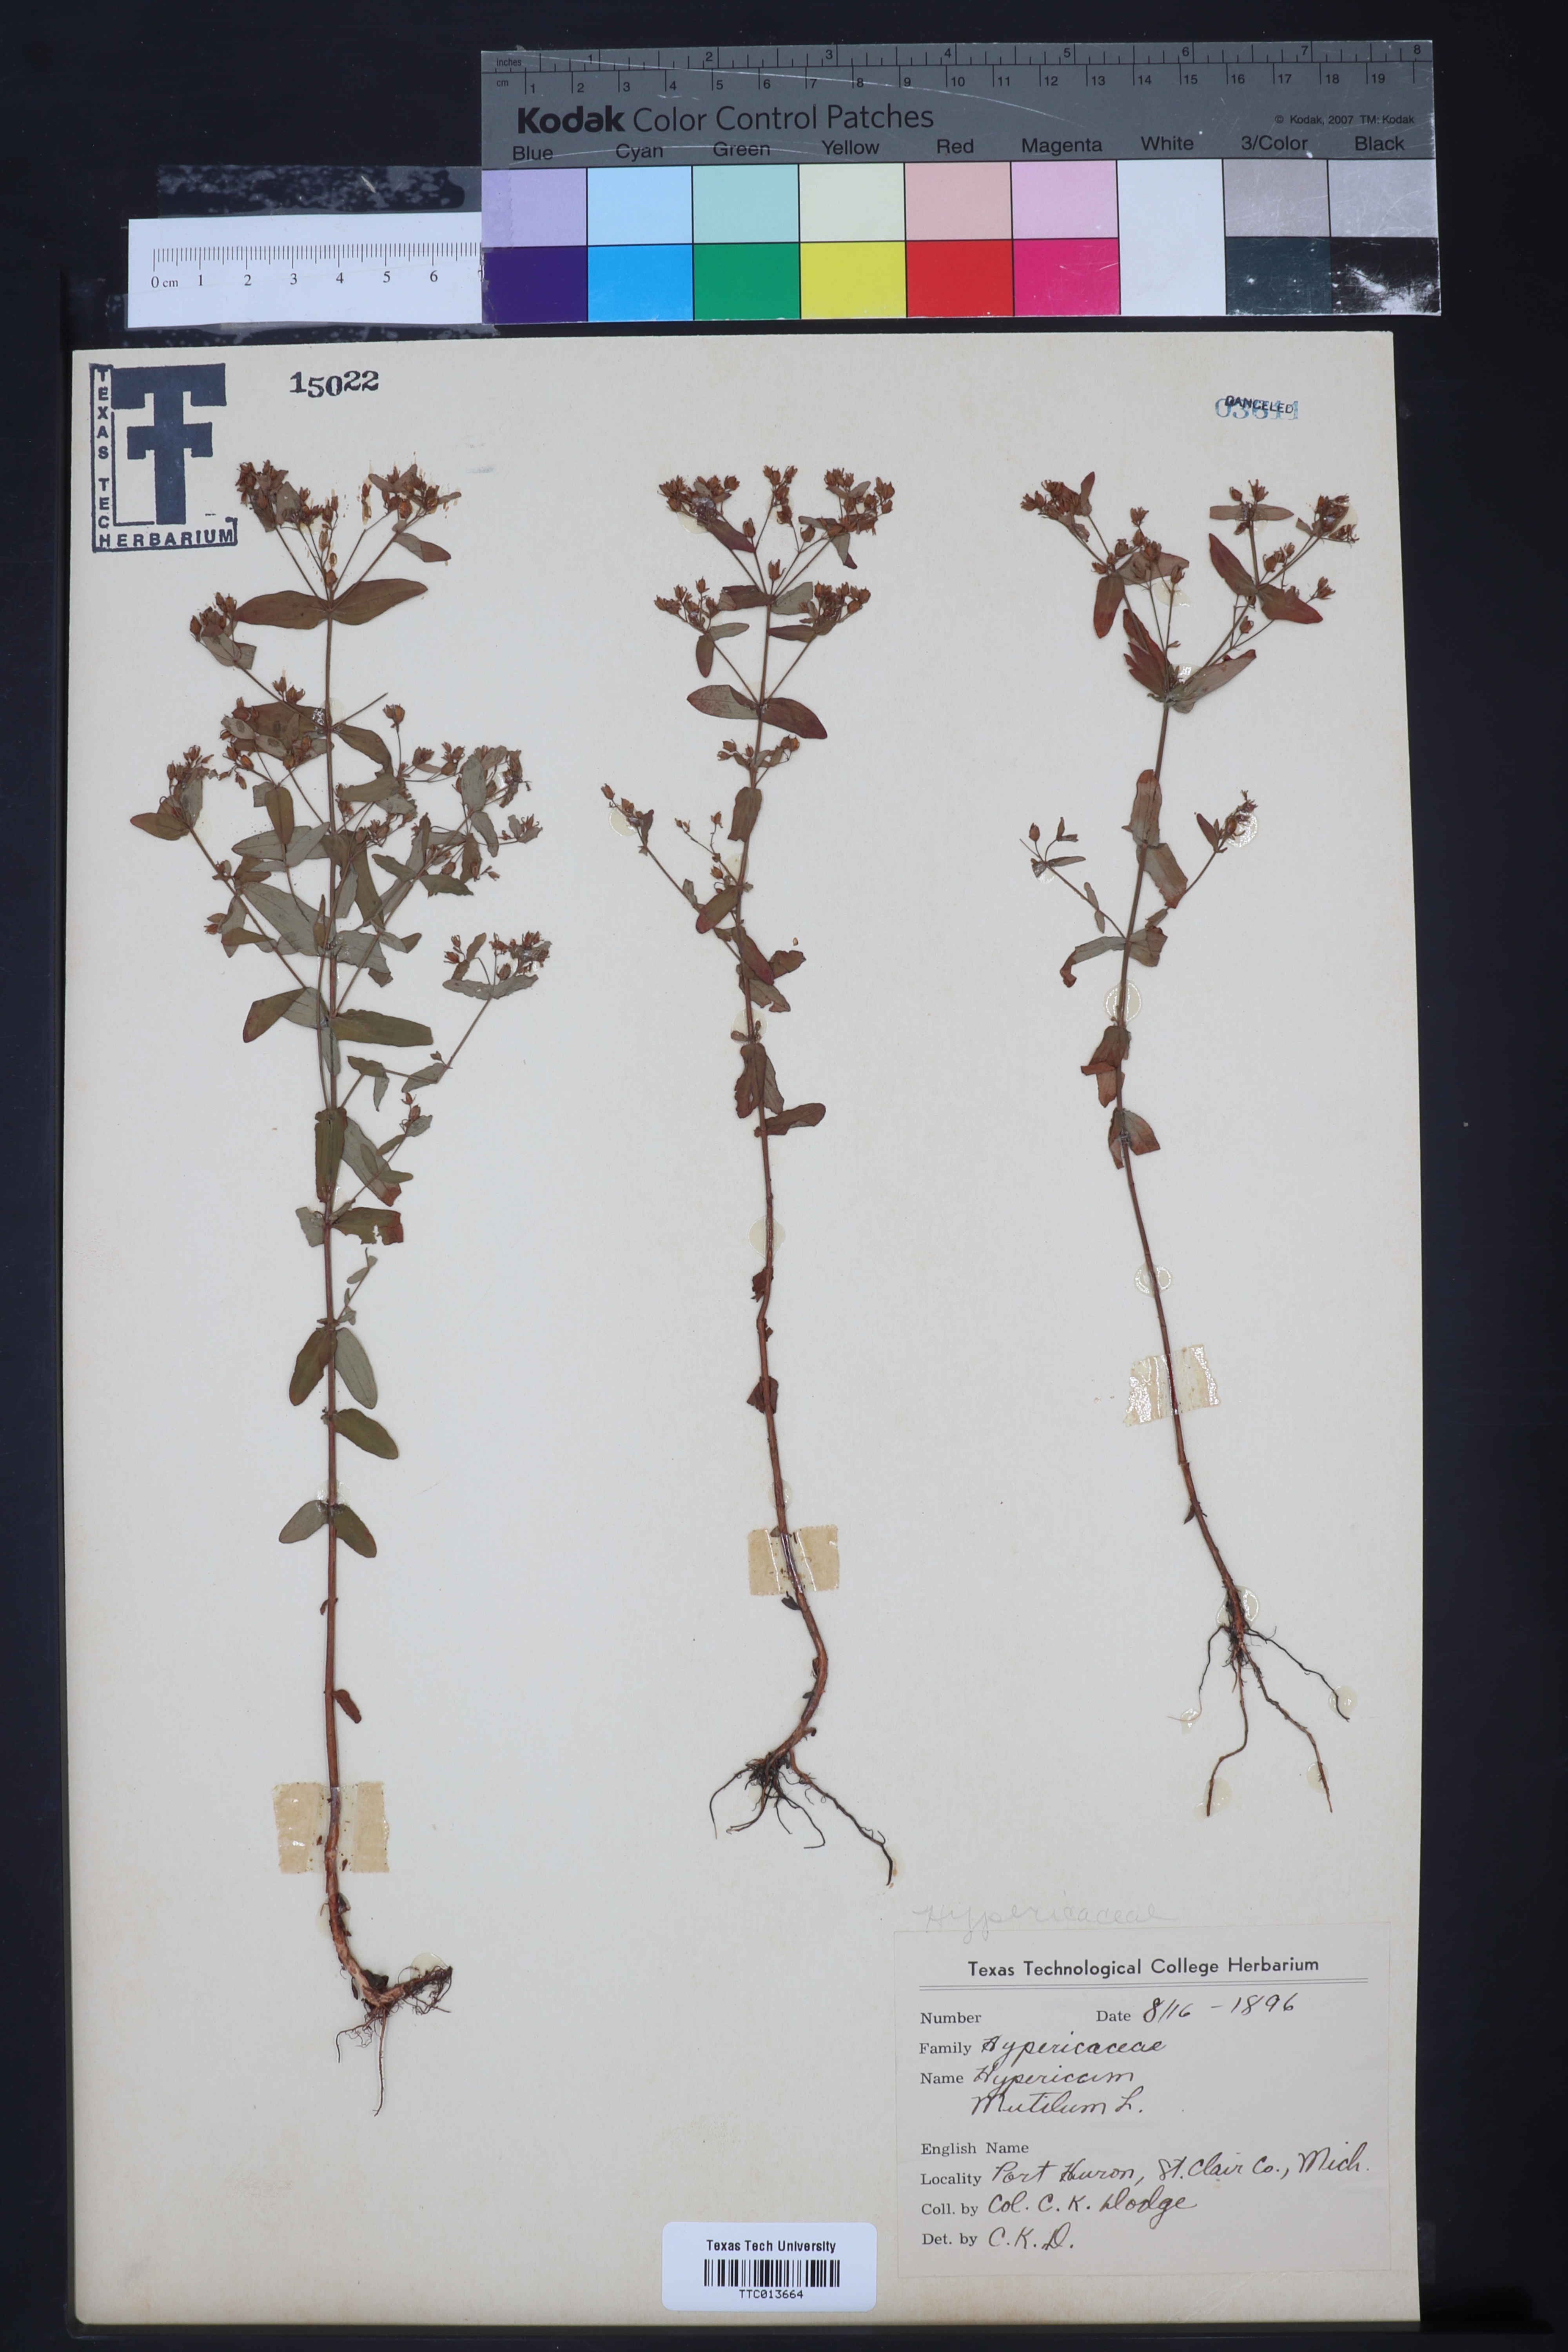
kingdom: Plantae
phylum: Tracheophyta
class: Magnoliopsida
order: Malpighiales
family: Hypericaceae
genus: Hypericum
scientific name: Hypericum mutilum
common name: Dwarf st. john's-wort
